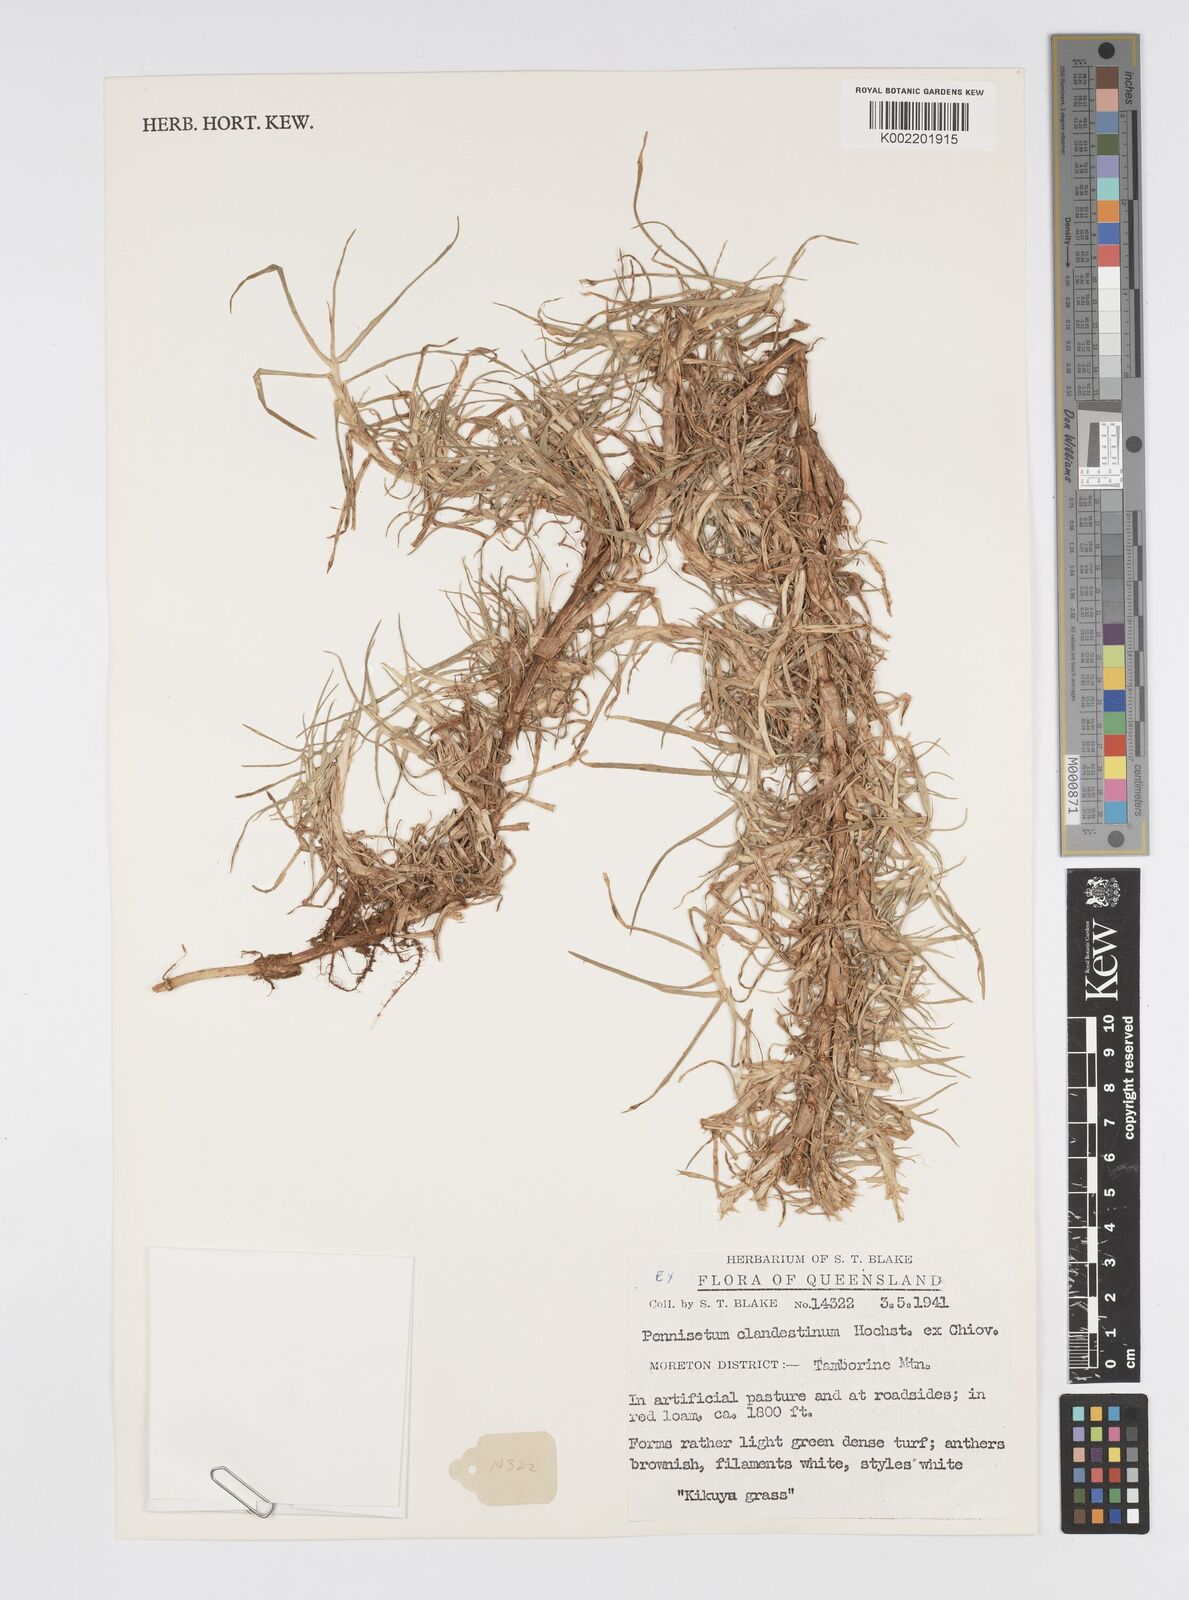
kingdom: Plantae
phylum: Tracheophyta
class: Liliopsida
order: Poales
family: Poaceae
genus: Cenchrus
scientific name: Cenchrus clandestinus
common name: Kikuyugrass
